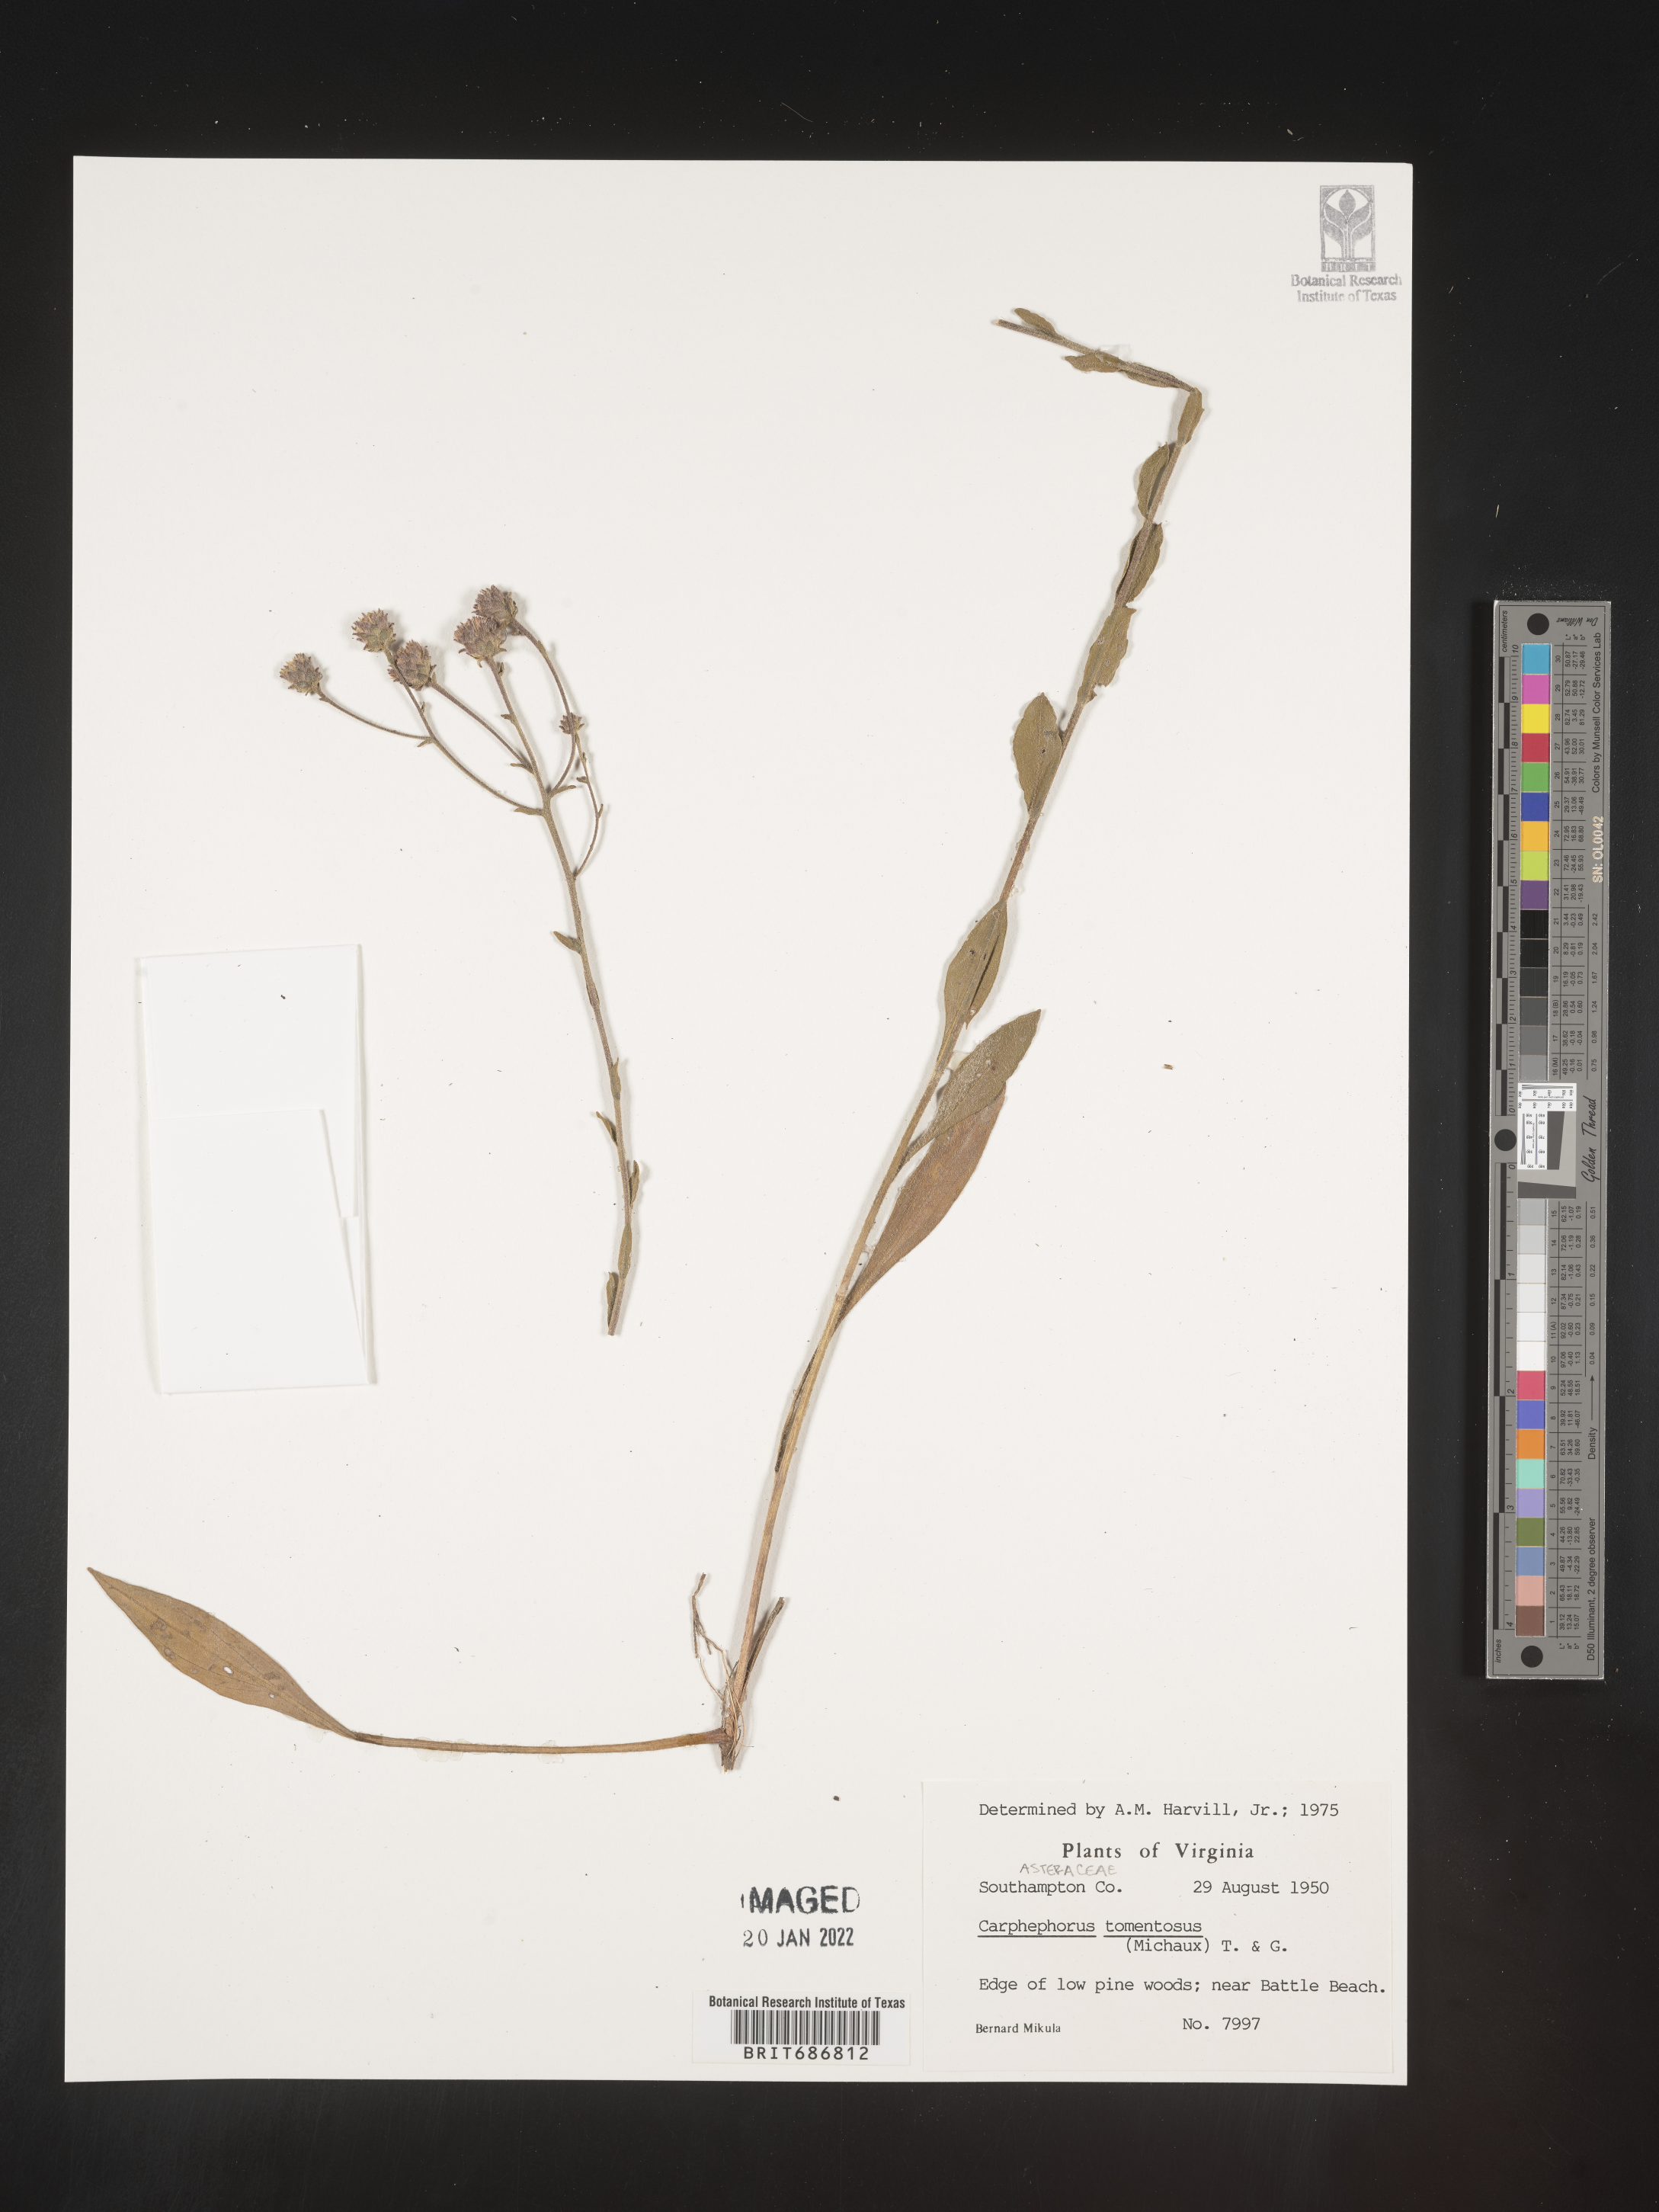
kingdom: Plantae
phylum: Tracheophyta
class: Magnoliopsida
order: Asterales
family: Asteraceae
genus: Carphephorus
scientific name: Carphephorus tomentosus
